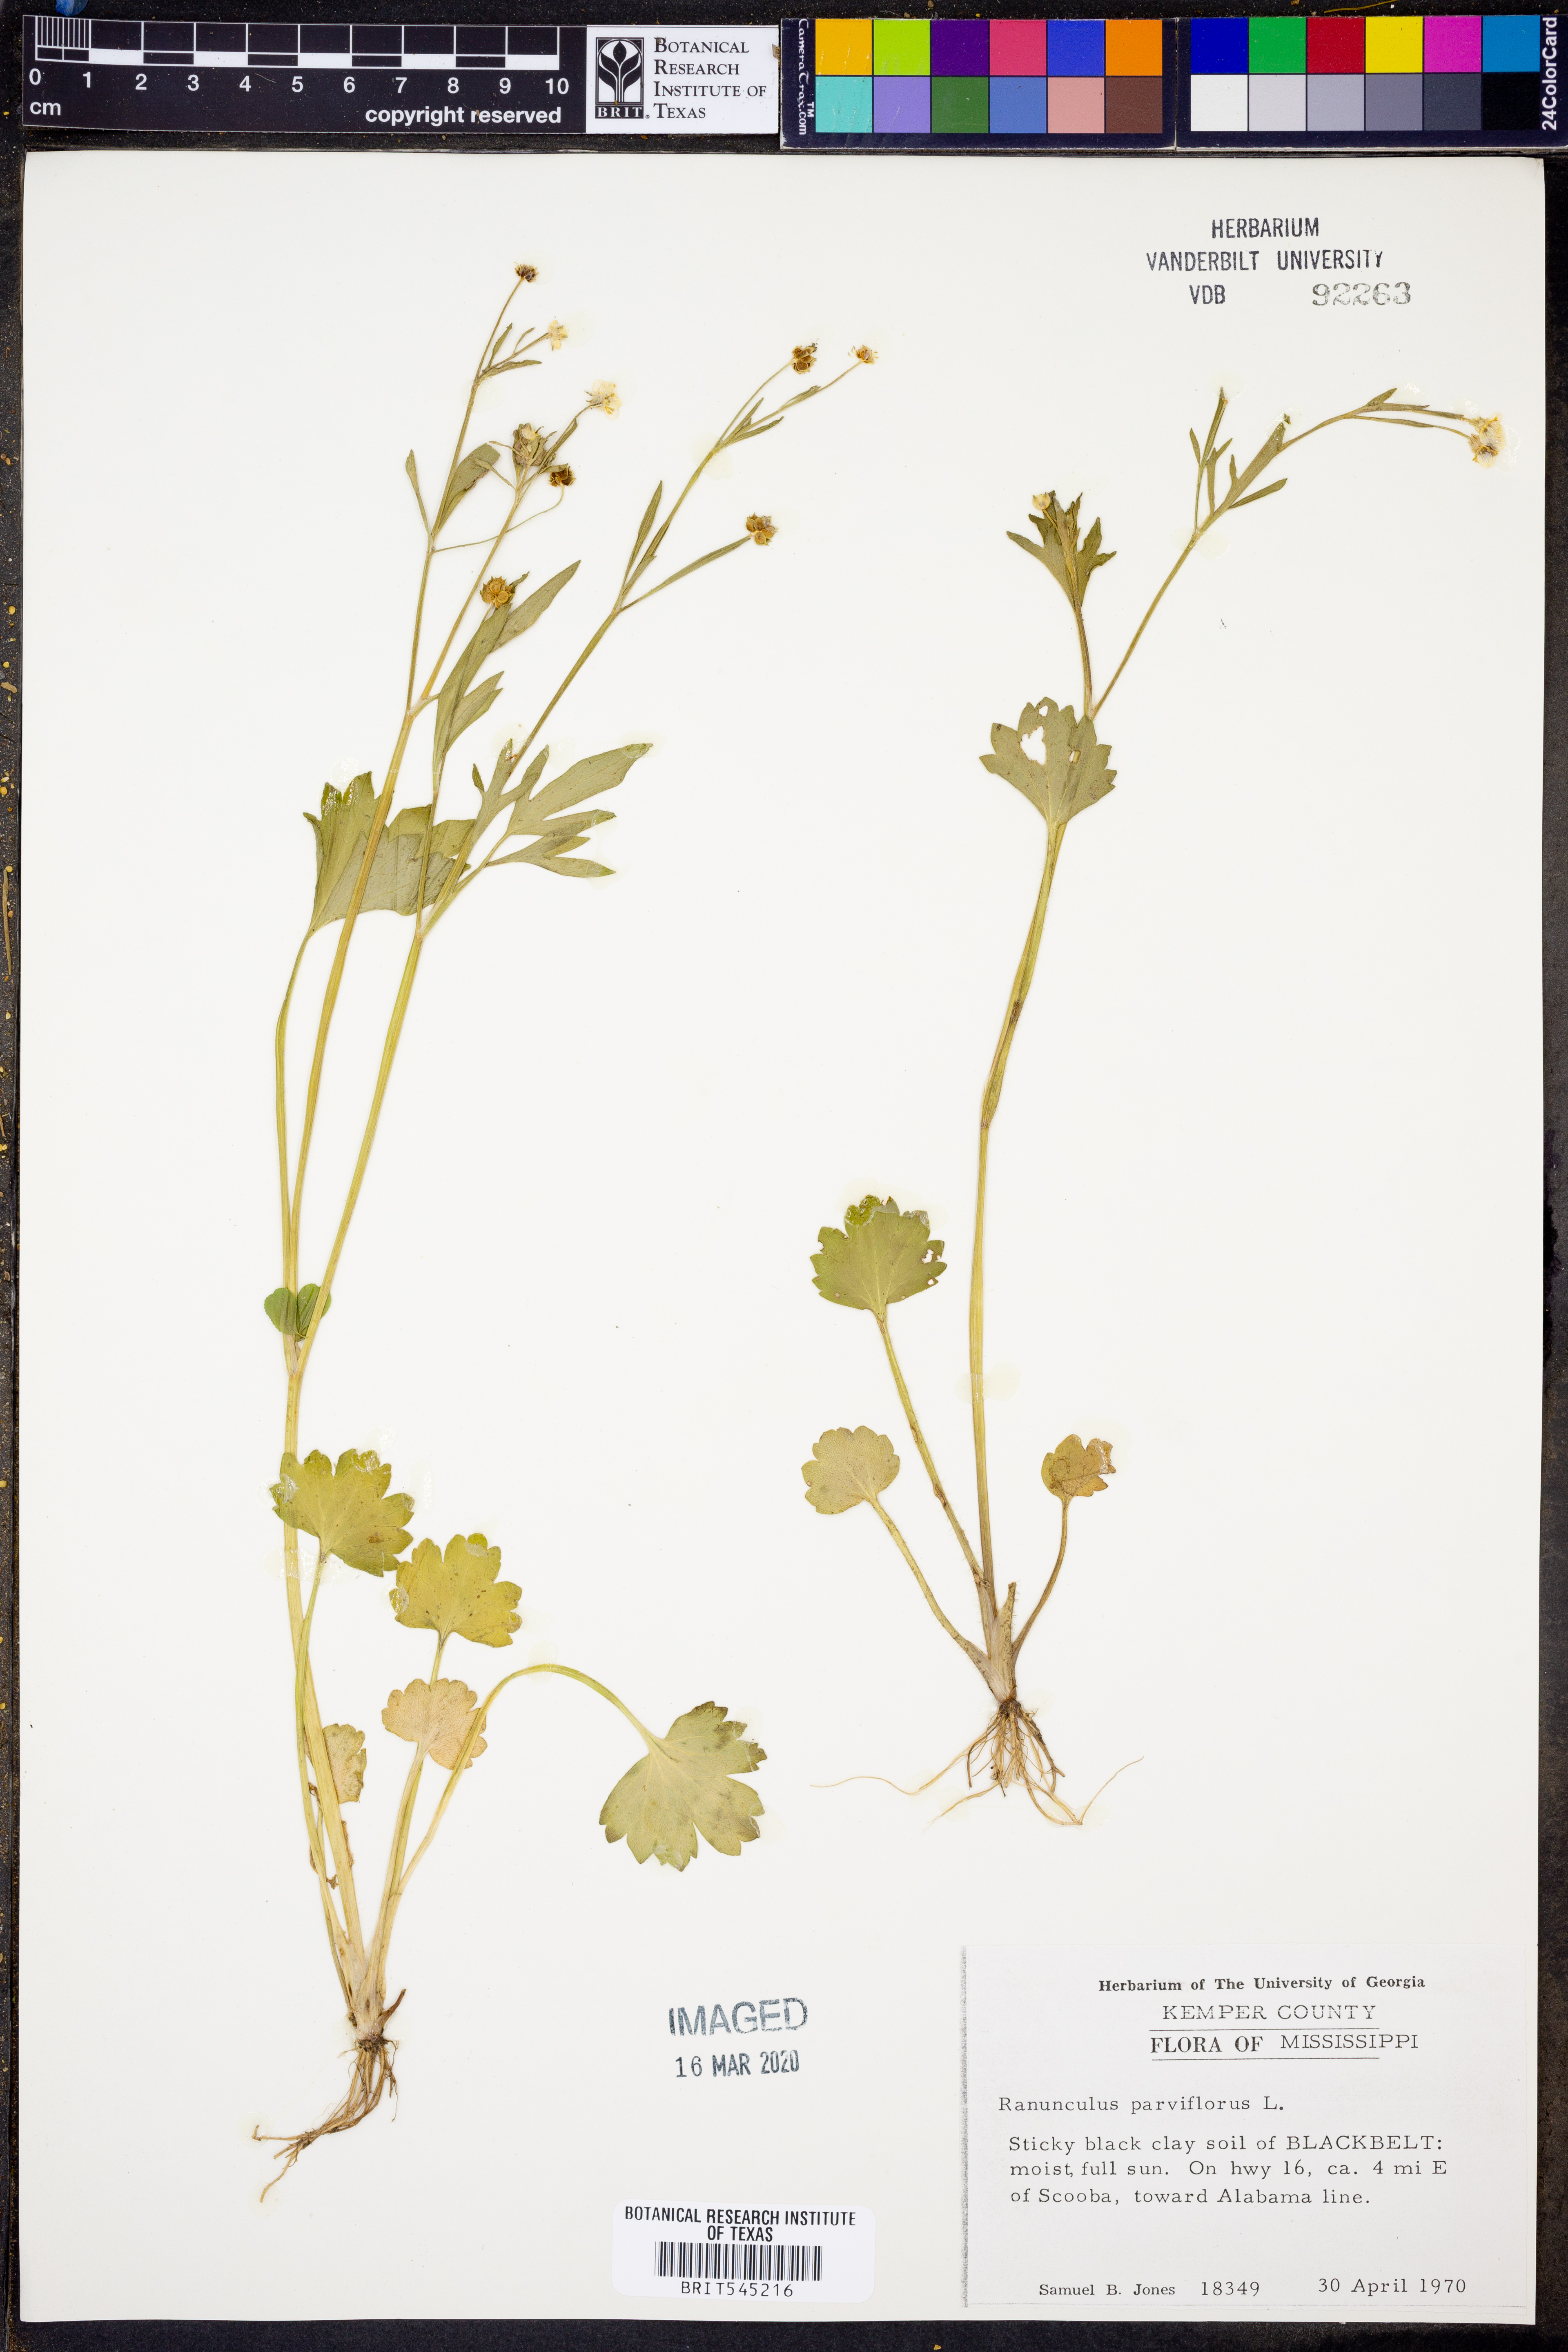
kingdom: Plantae
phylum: Tracheophyta
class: Magnoliopsida
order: Ranunculales
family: Ranunculaceae
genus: Ranunculus
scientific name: Ranunculus parviflorus
